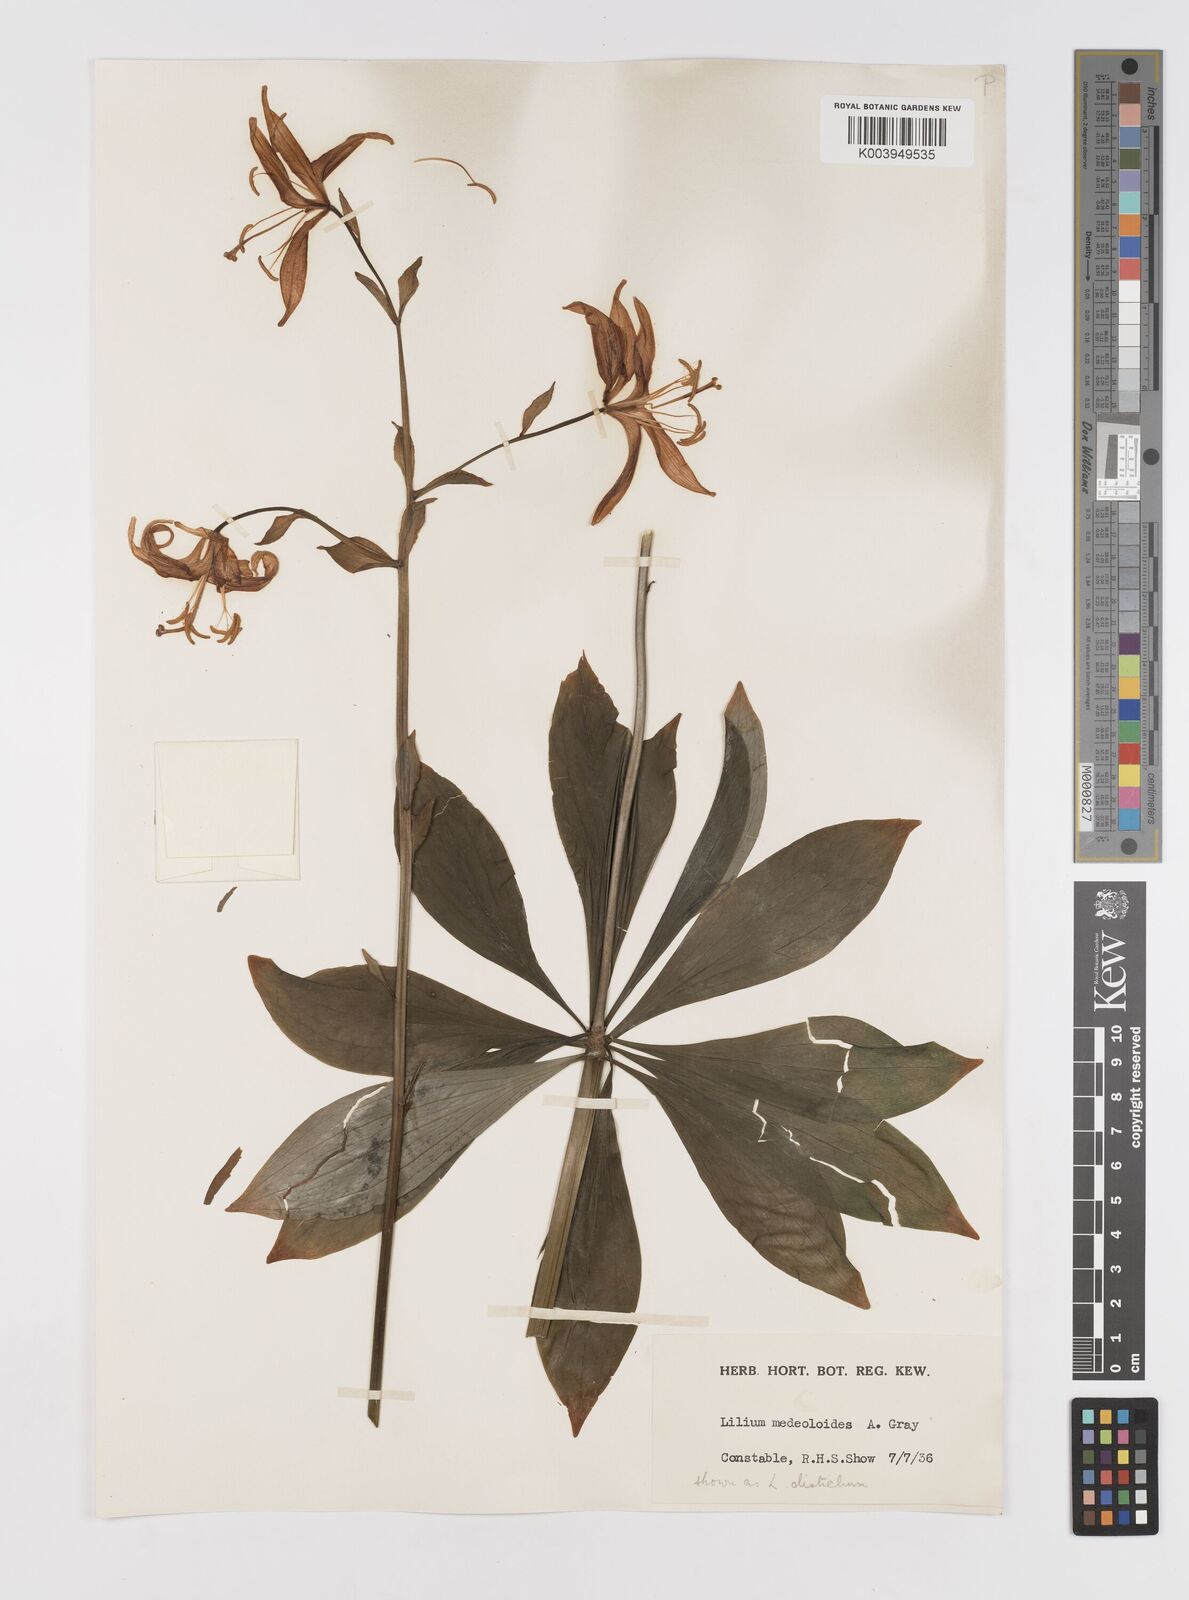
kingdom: Plantae
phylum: Tracheophyta
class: Liliopsida
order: Liliales
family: Liliaceae
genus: Lilium
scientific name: Lilium medeoloides
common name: Wheel lily
